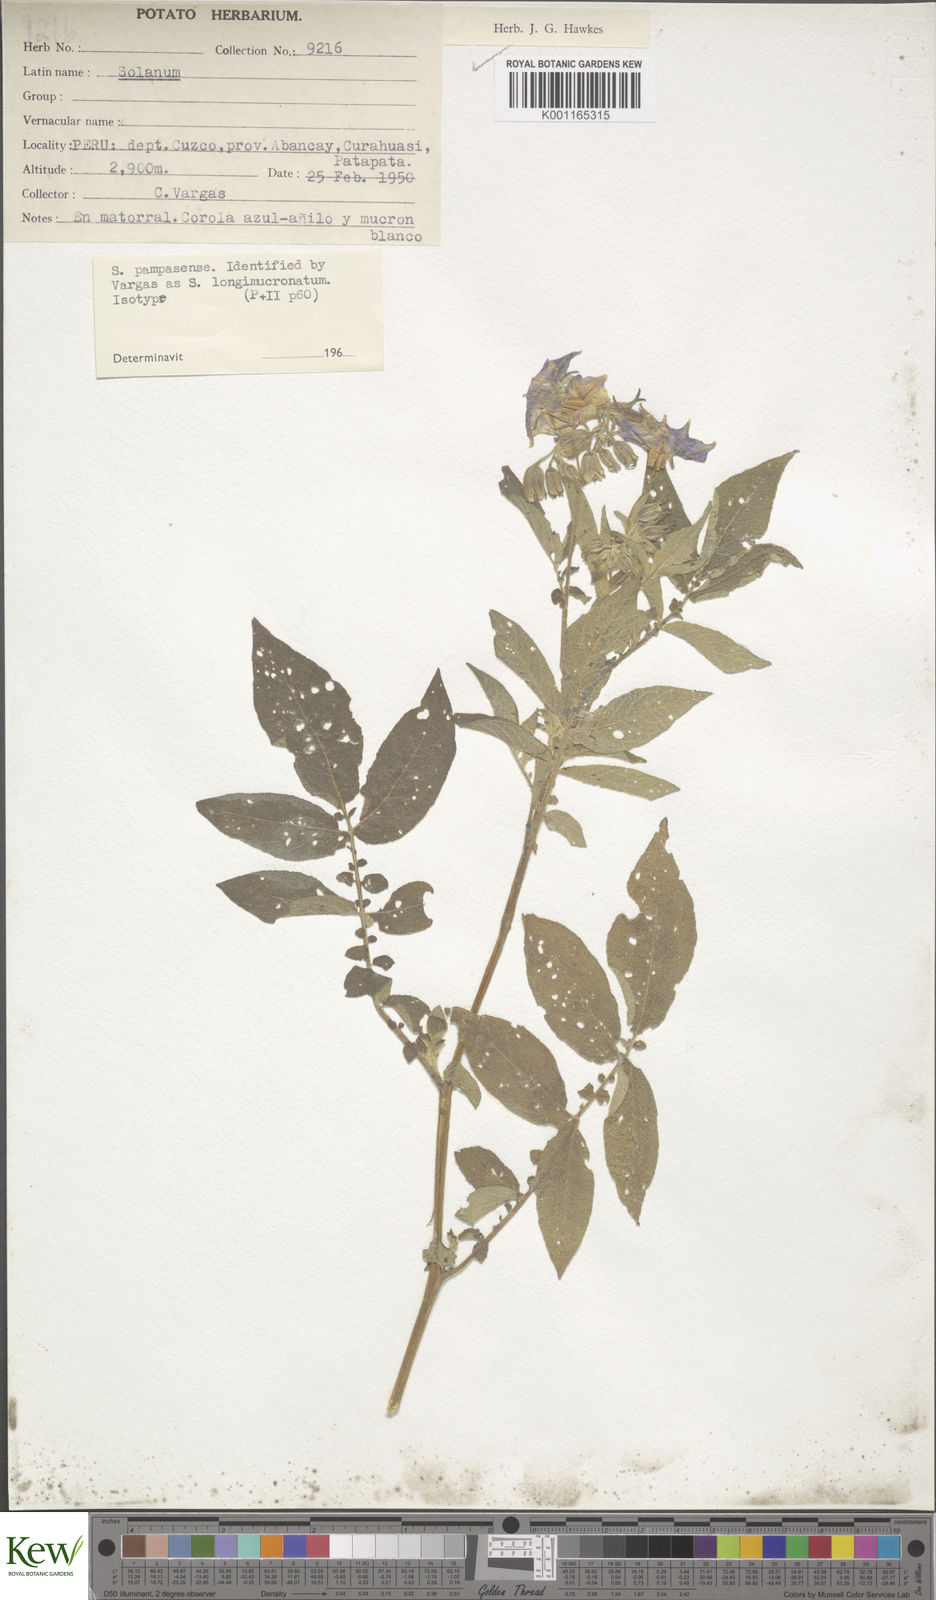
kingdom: Plantae
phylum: Tracheophyta
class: Magnoliopsida
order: Solanales
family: Solanaceae
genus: Solanum
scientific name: Solanum candolleanum
